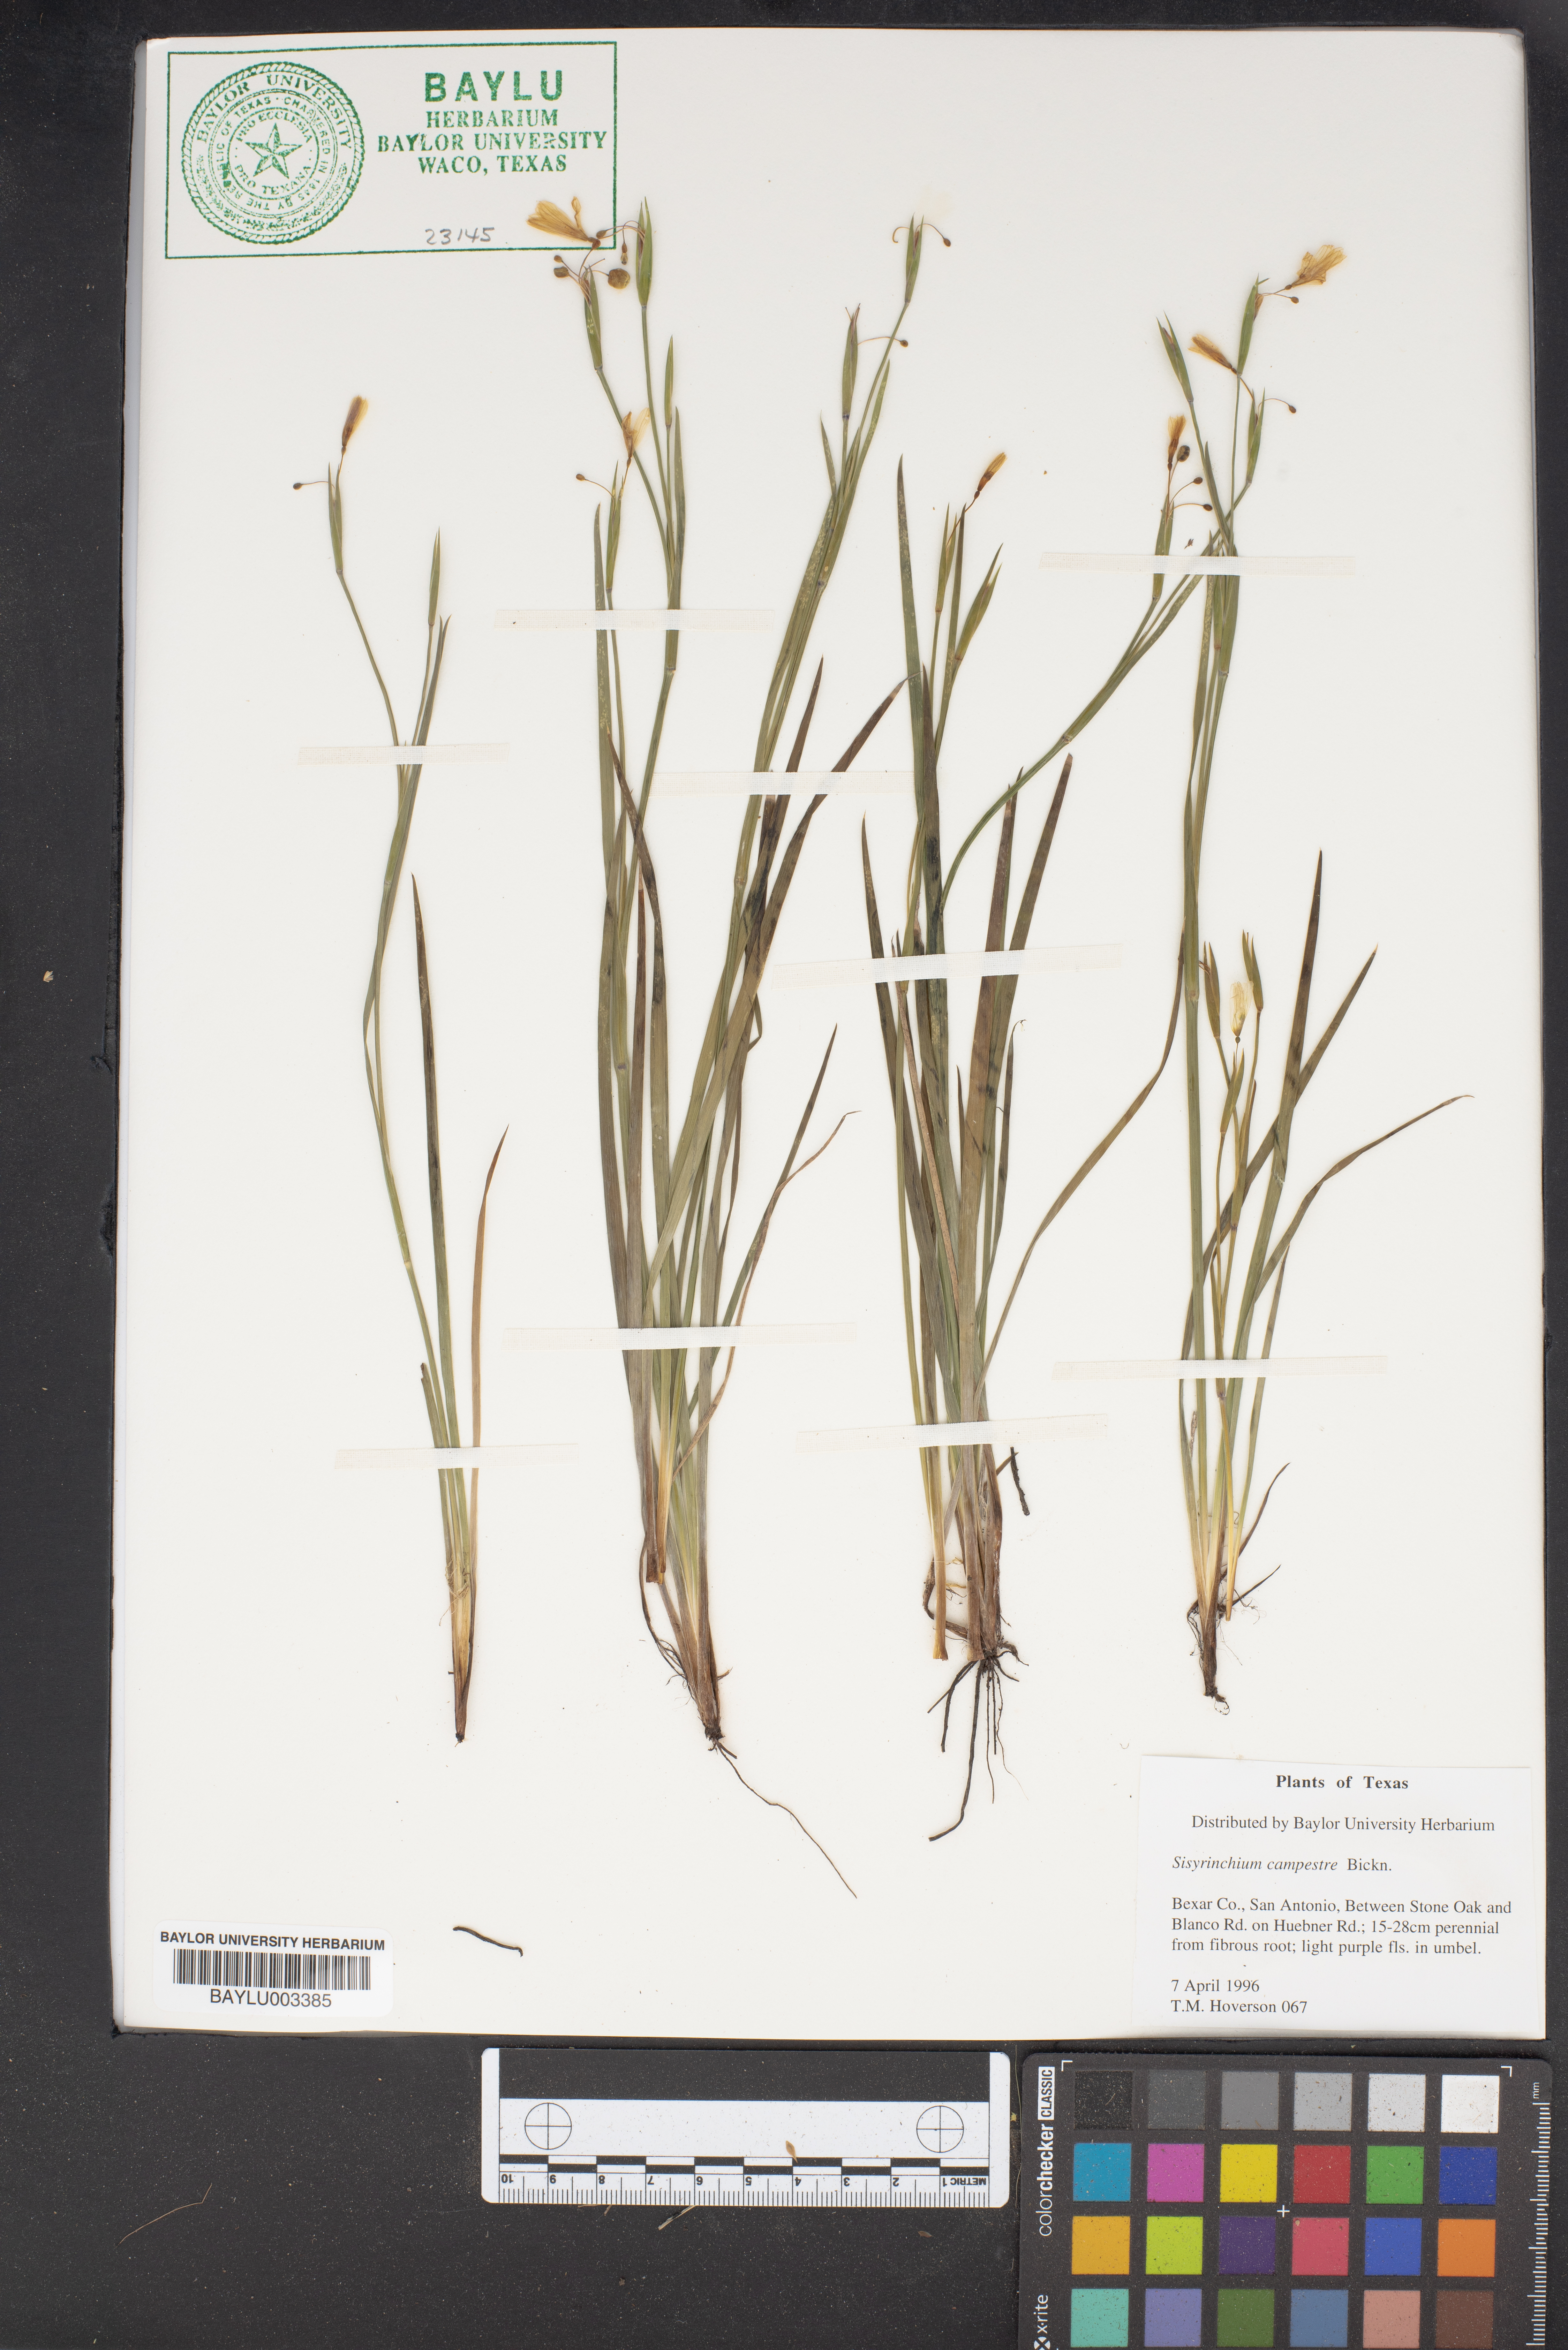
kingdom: Plantae
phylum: Tracheophyta
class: Liliopsida
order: Asparagales
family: Iridaceae
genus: Sisyrinchium
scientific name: Sisyrinchium campestre
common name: Prairie blue-eyed-grass
